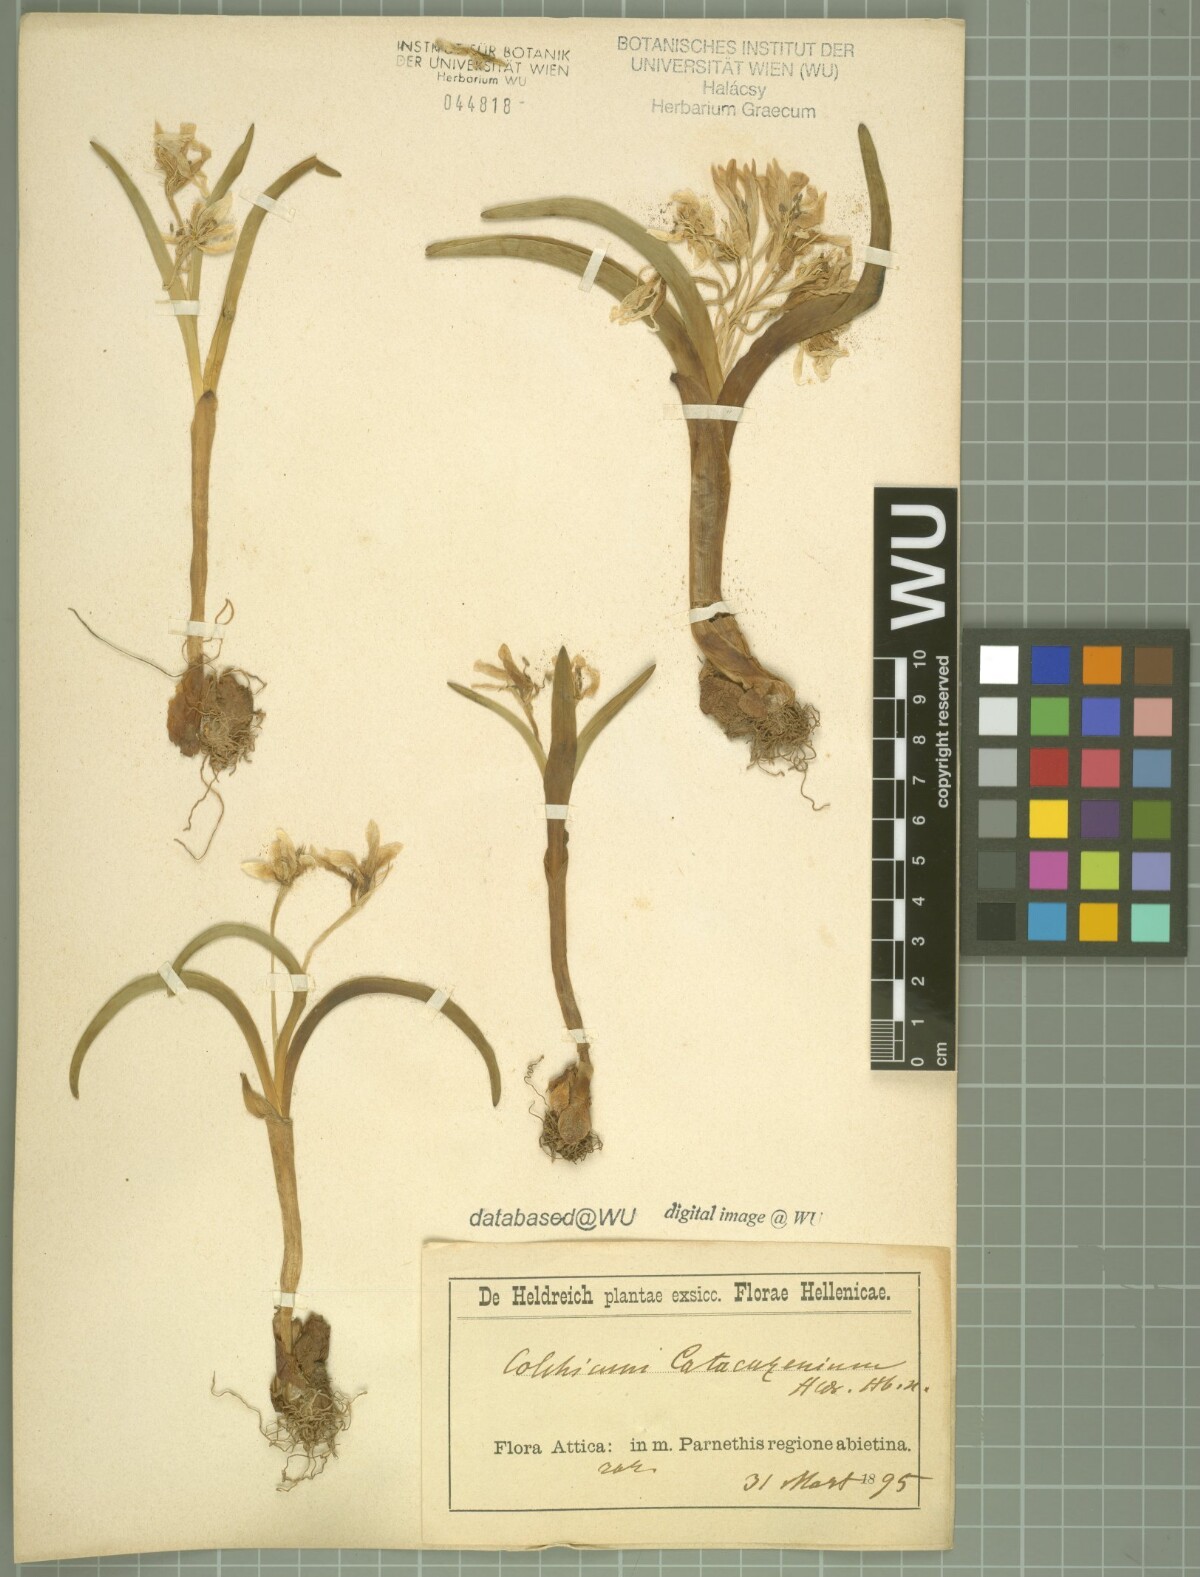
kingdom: Plantae
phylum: Tracheophyta
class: Liliopsida
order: Liliales
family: Colchicaceae
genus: Colchicum
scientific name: Colchicum triphyllum
